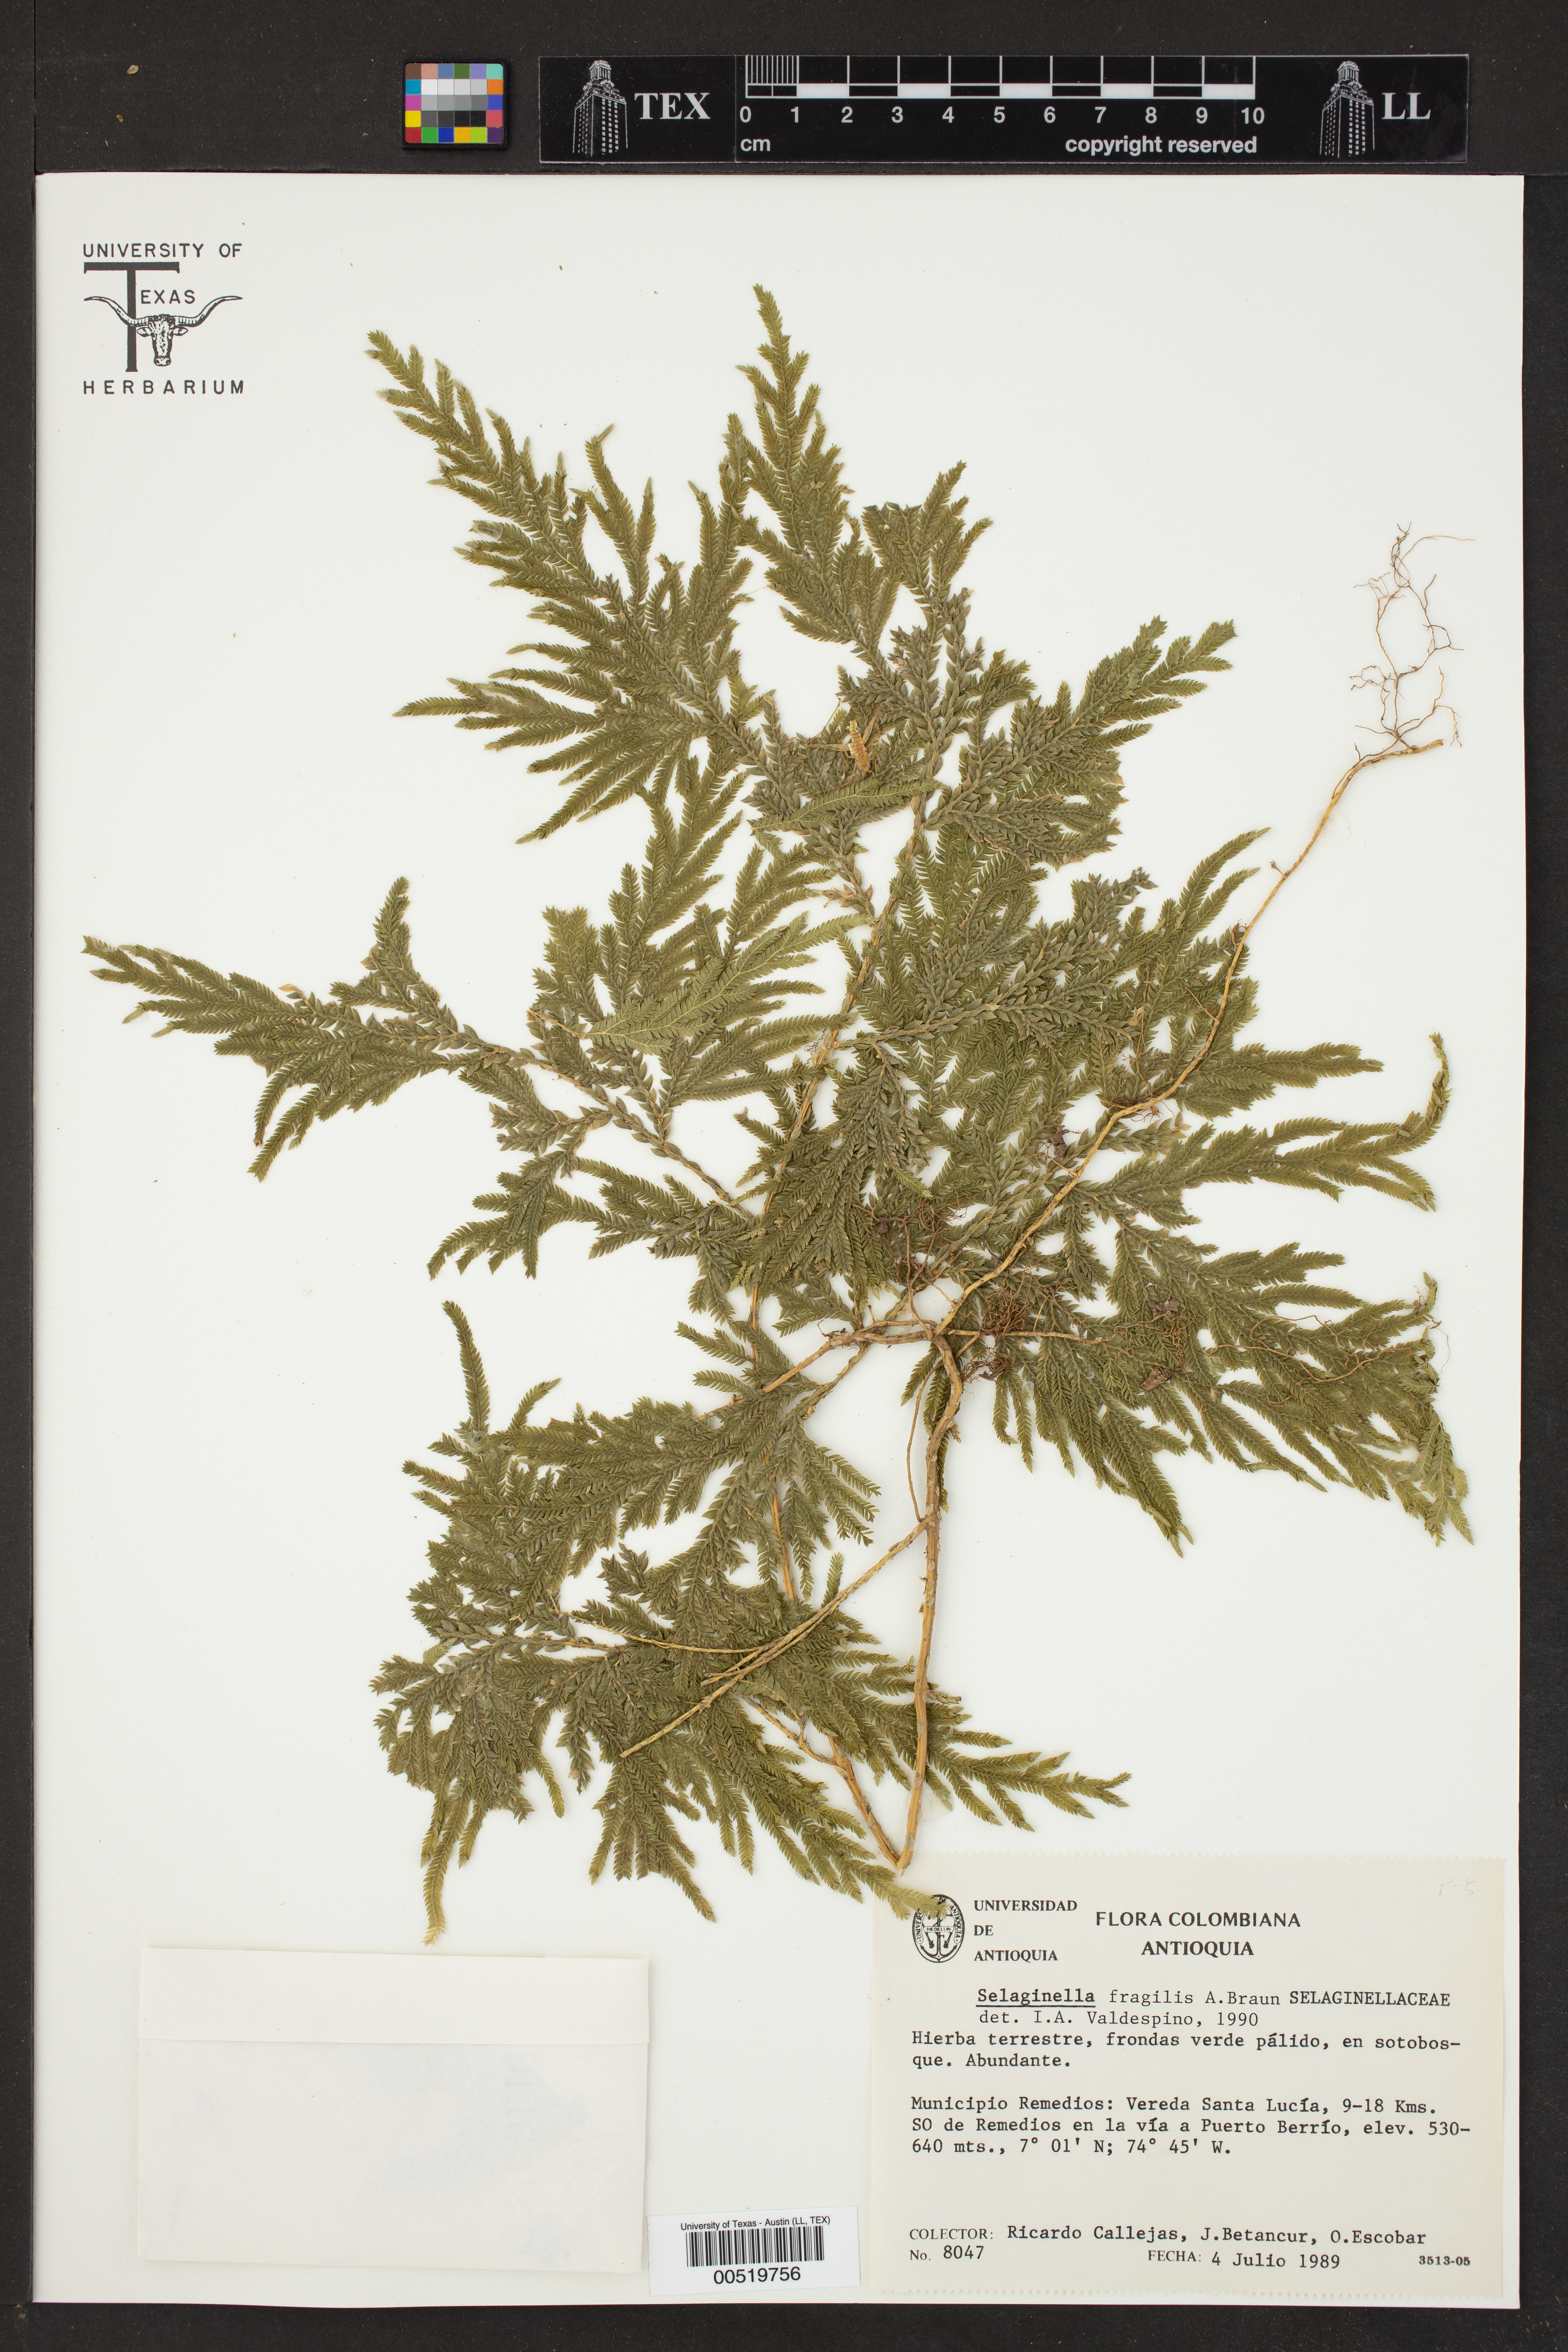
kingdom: Plantae
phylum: Tracheophyta
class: Lycopodiopsida
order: Selaginellales
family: Selaginellaceae
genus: Selaginella
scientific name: Selaginella fragilis
